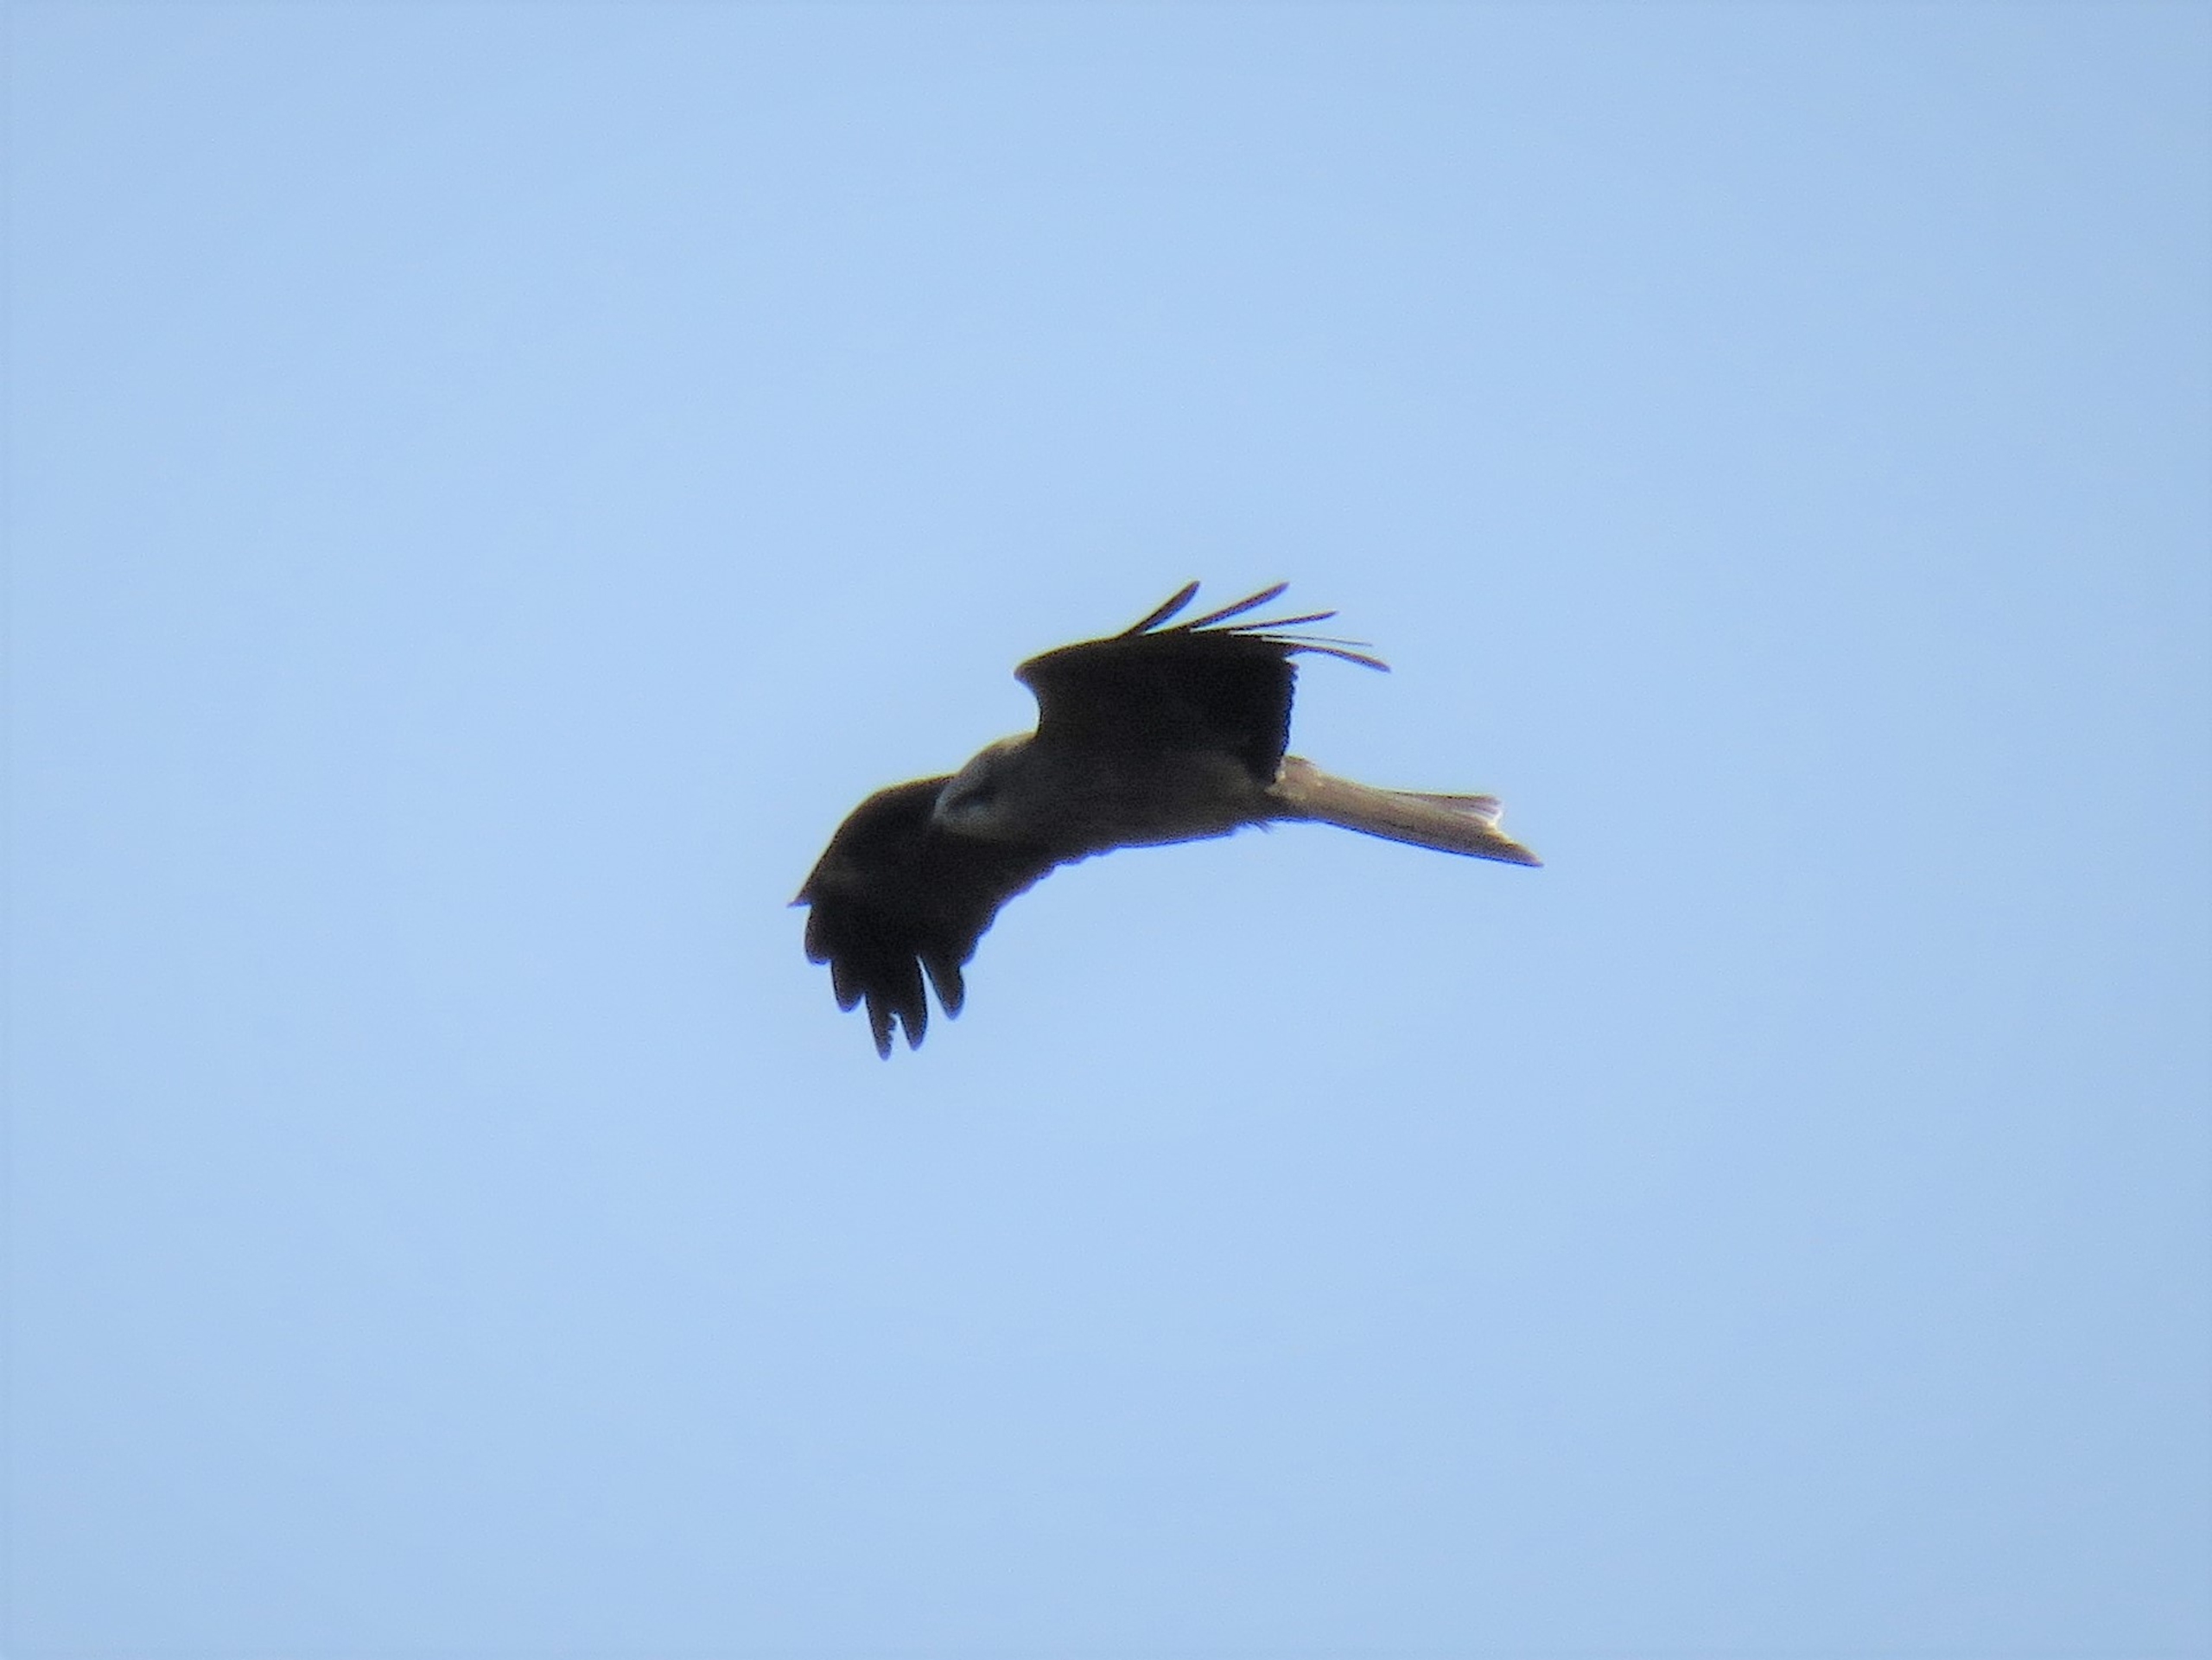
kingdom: Animalia
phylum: Chordata
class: Aves
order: Accipitriformes
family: Accipitridae
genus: Milvus
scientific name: Milvus migrans
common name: Sort glente
